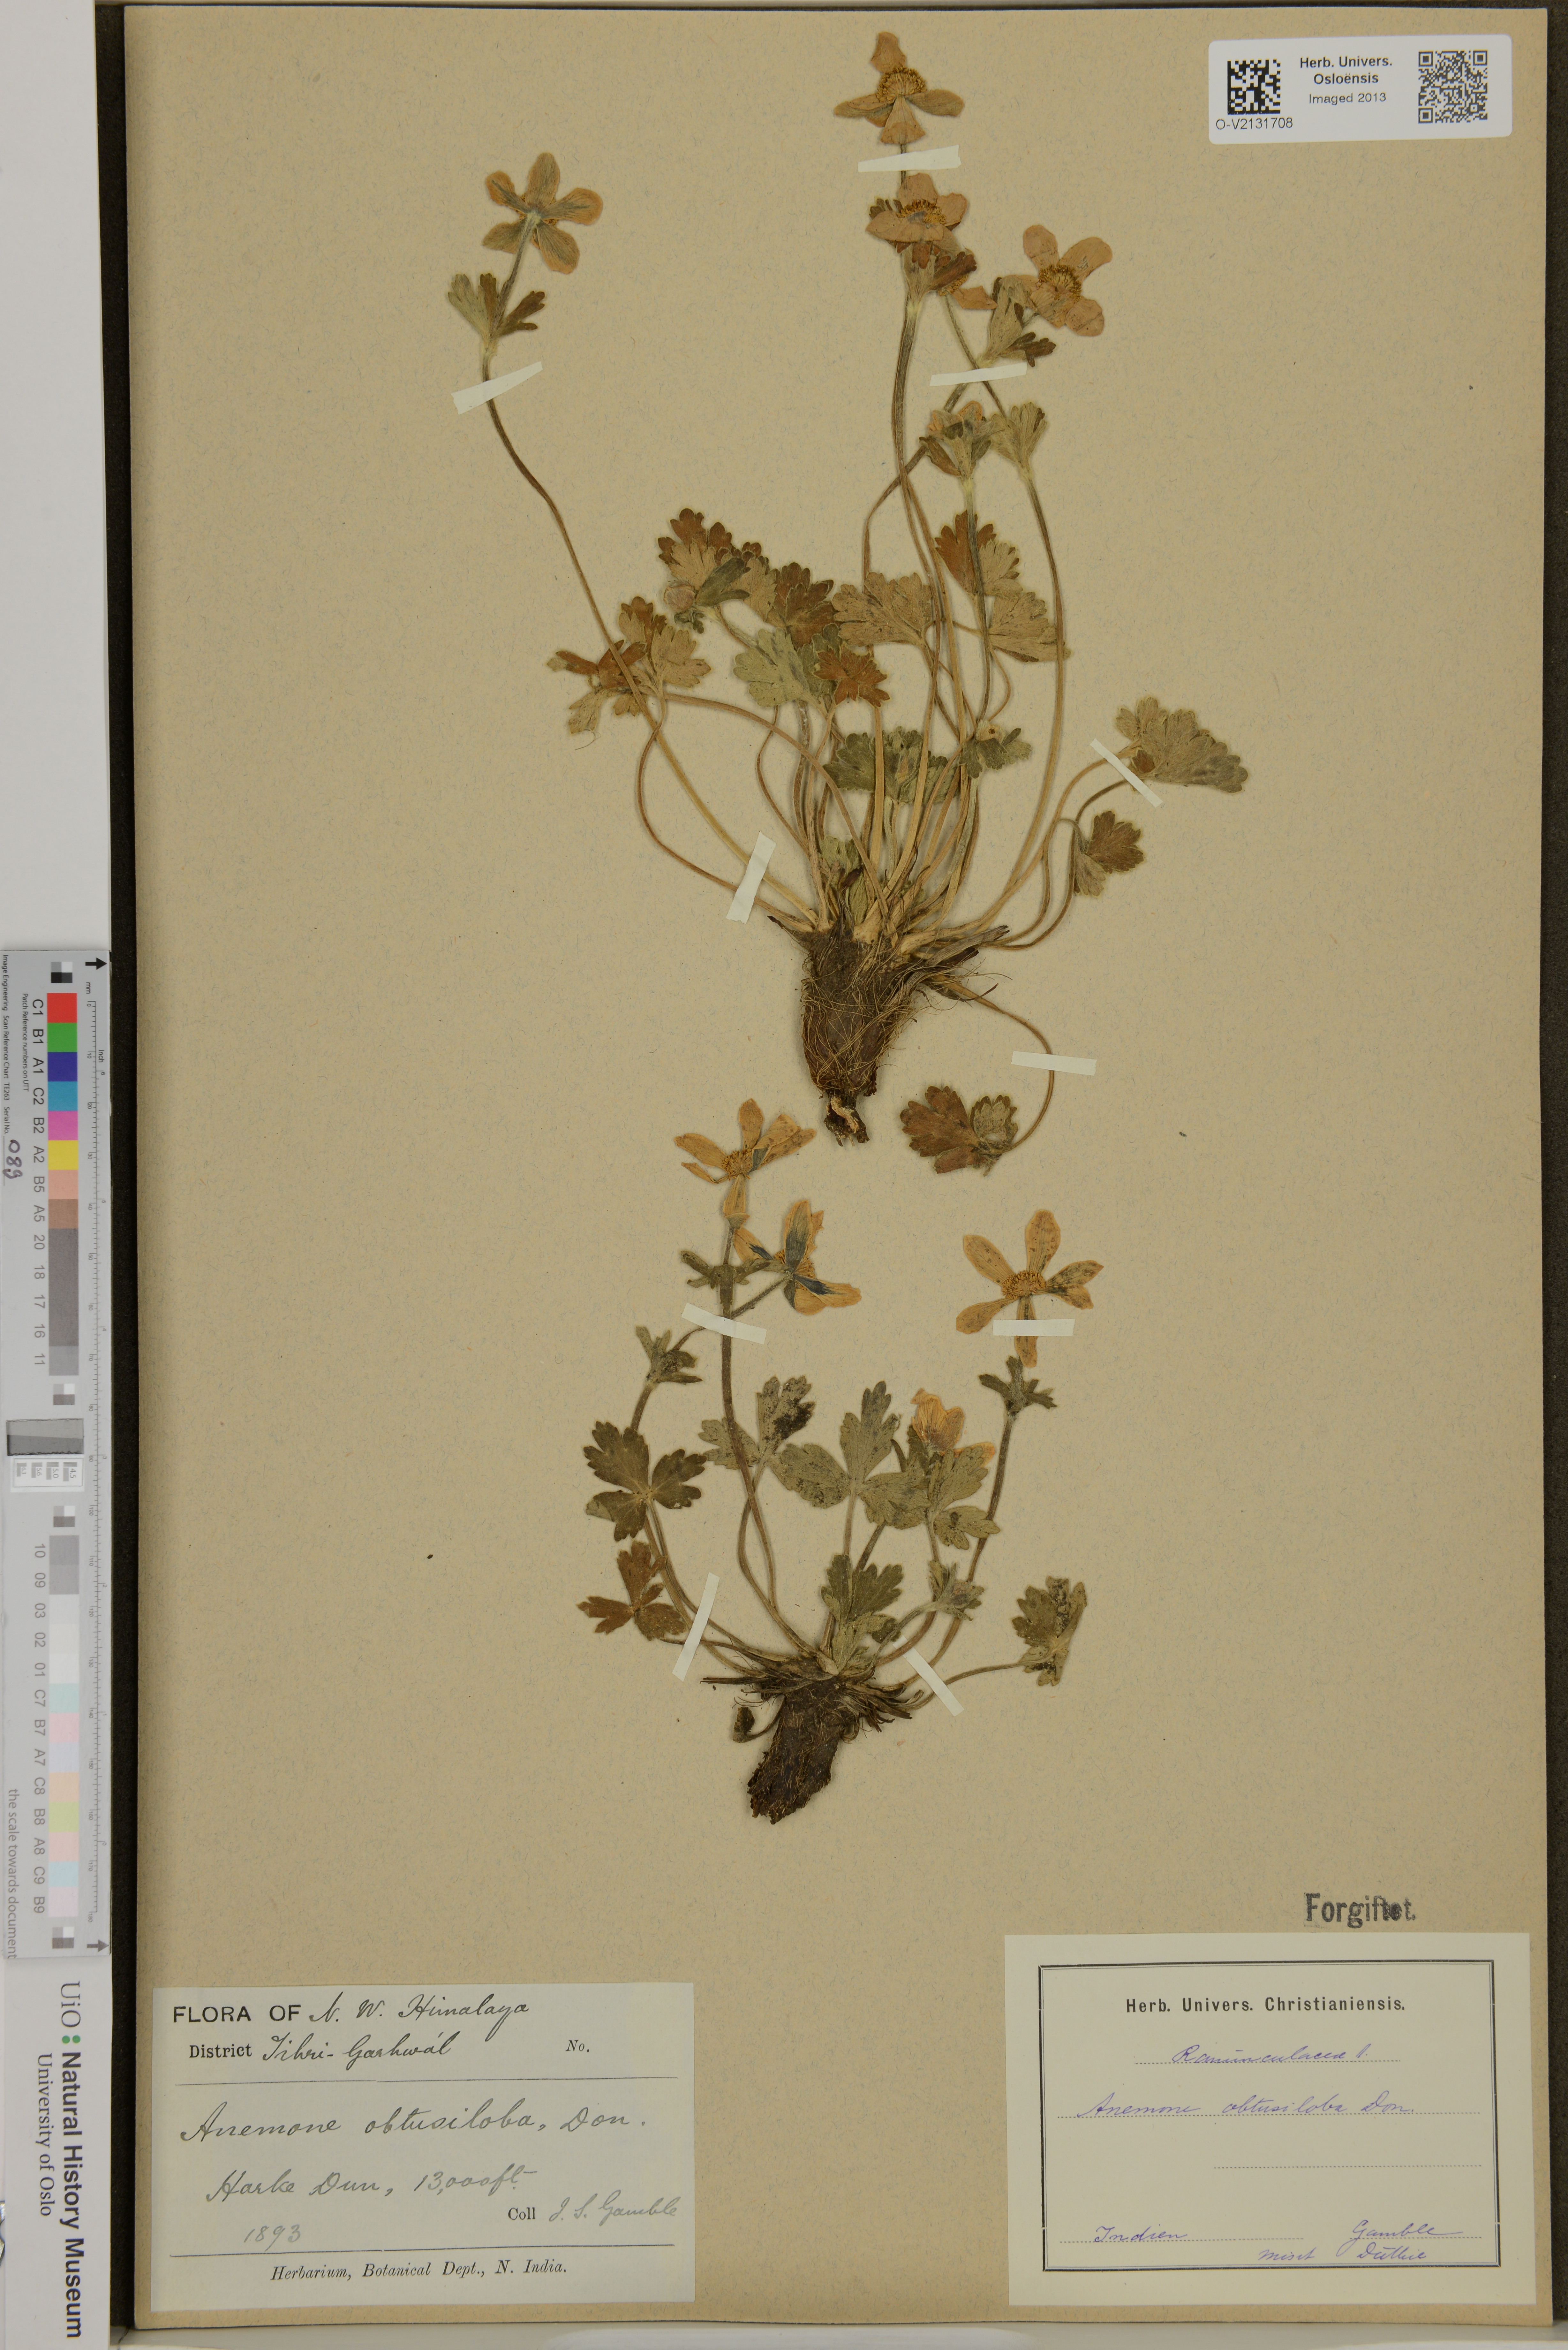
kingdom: Plantae
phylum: Tracheophyta
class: Magnoliopsida
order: Ranunculales
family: Ranunculaceae
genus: Anemonastrum
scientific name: Anemonastrum
